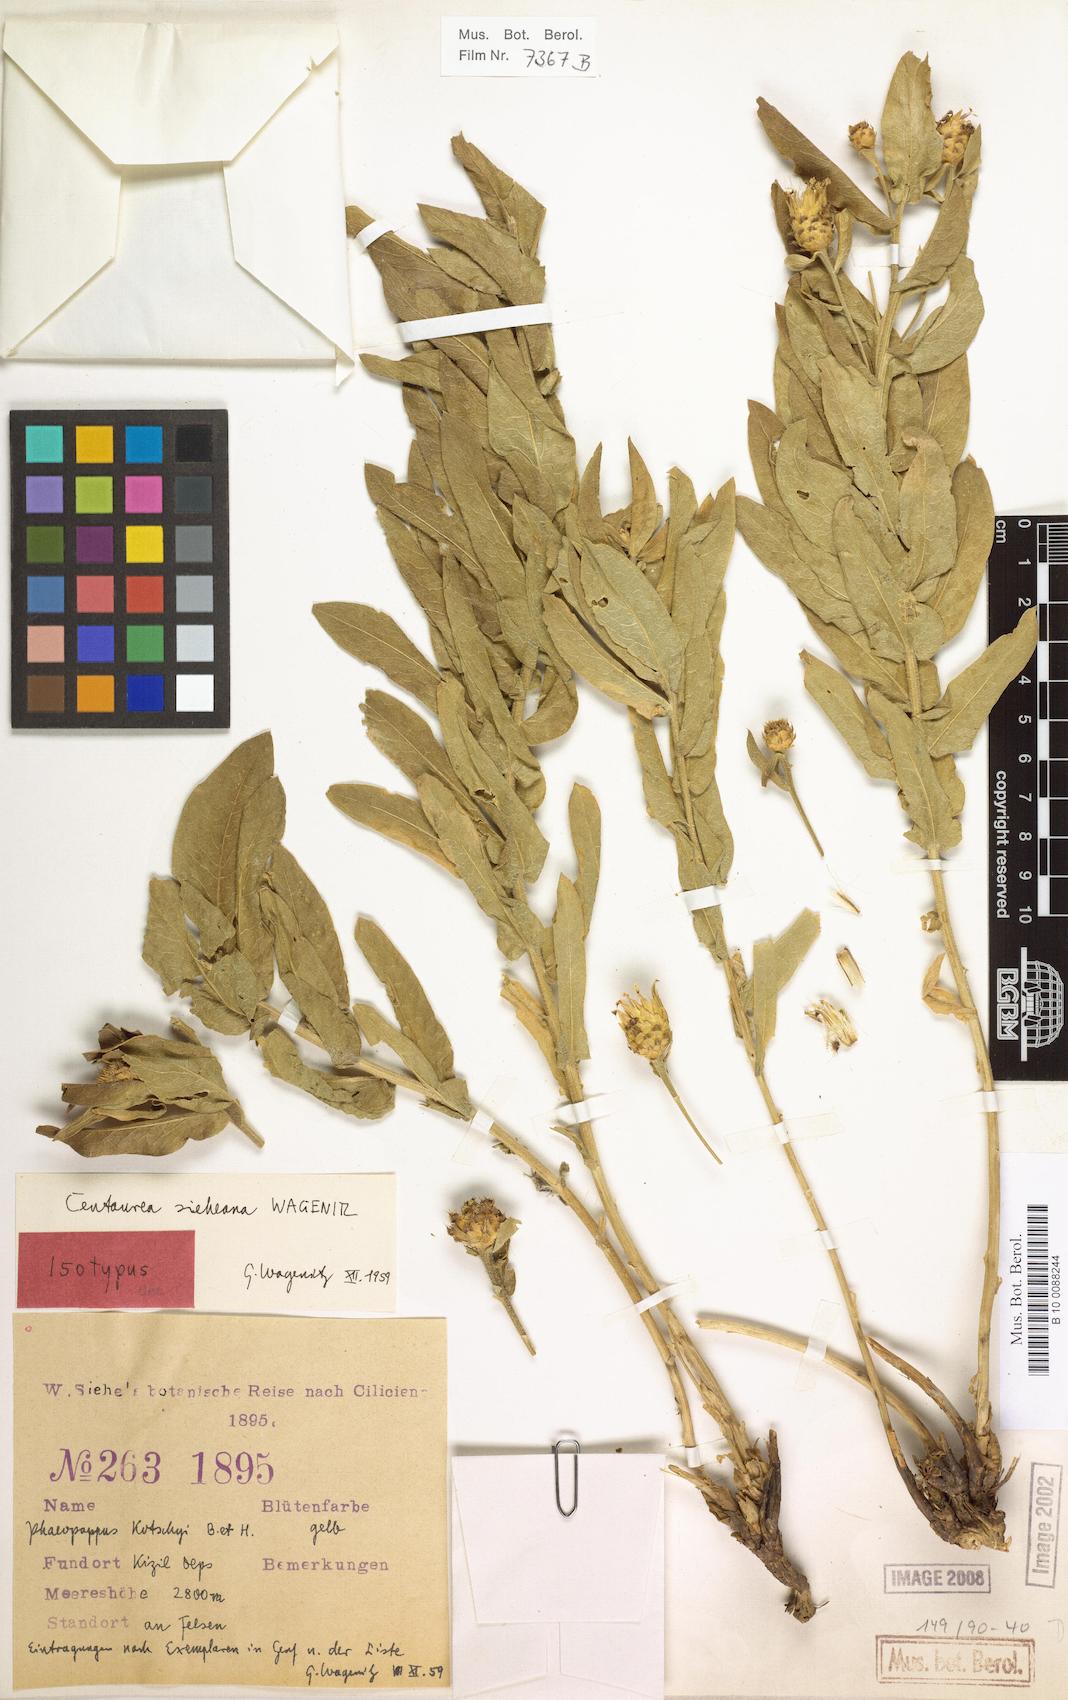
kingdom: Plantae
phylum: Tracheophyta
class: Magnoliopsida
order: Asterales
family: Asteraceae
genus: Centaurea
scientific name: Centaurea sieheana
